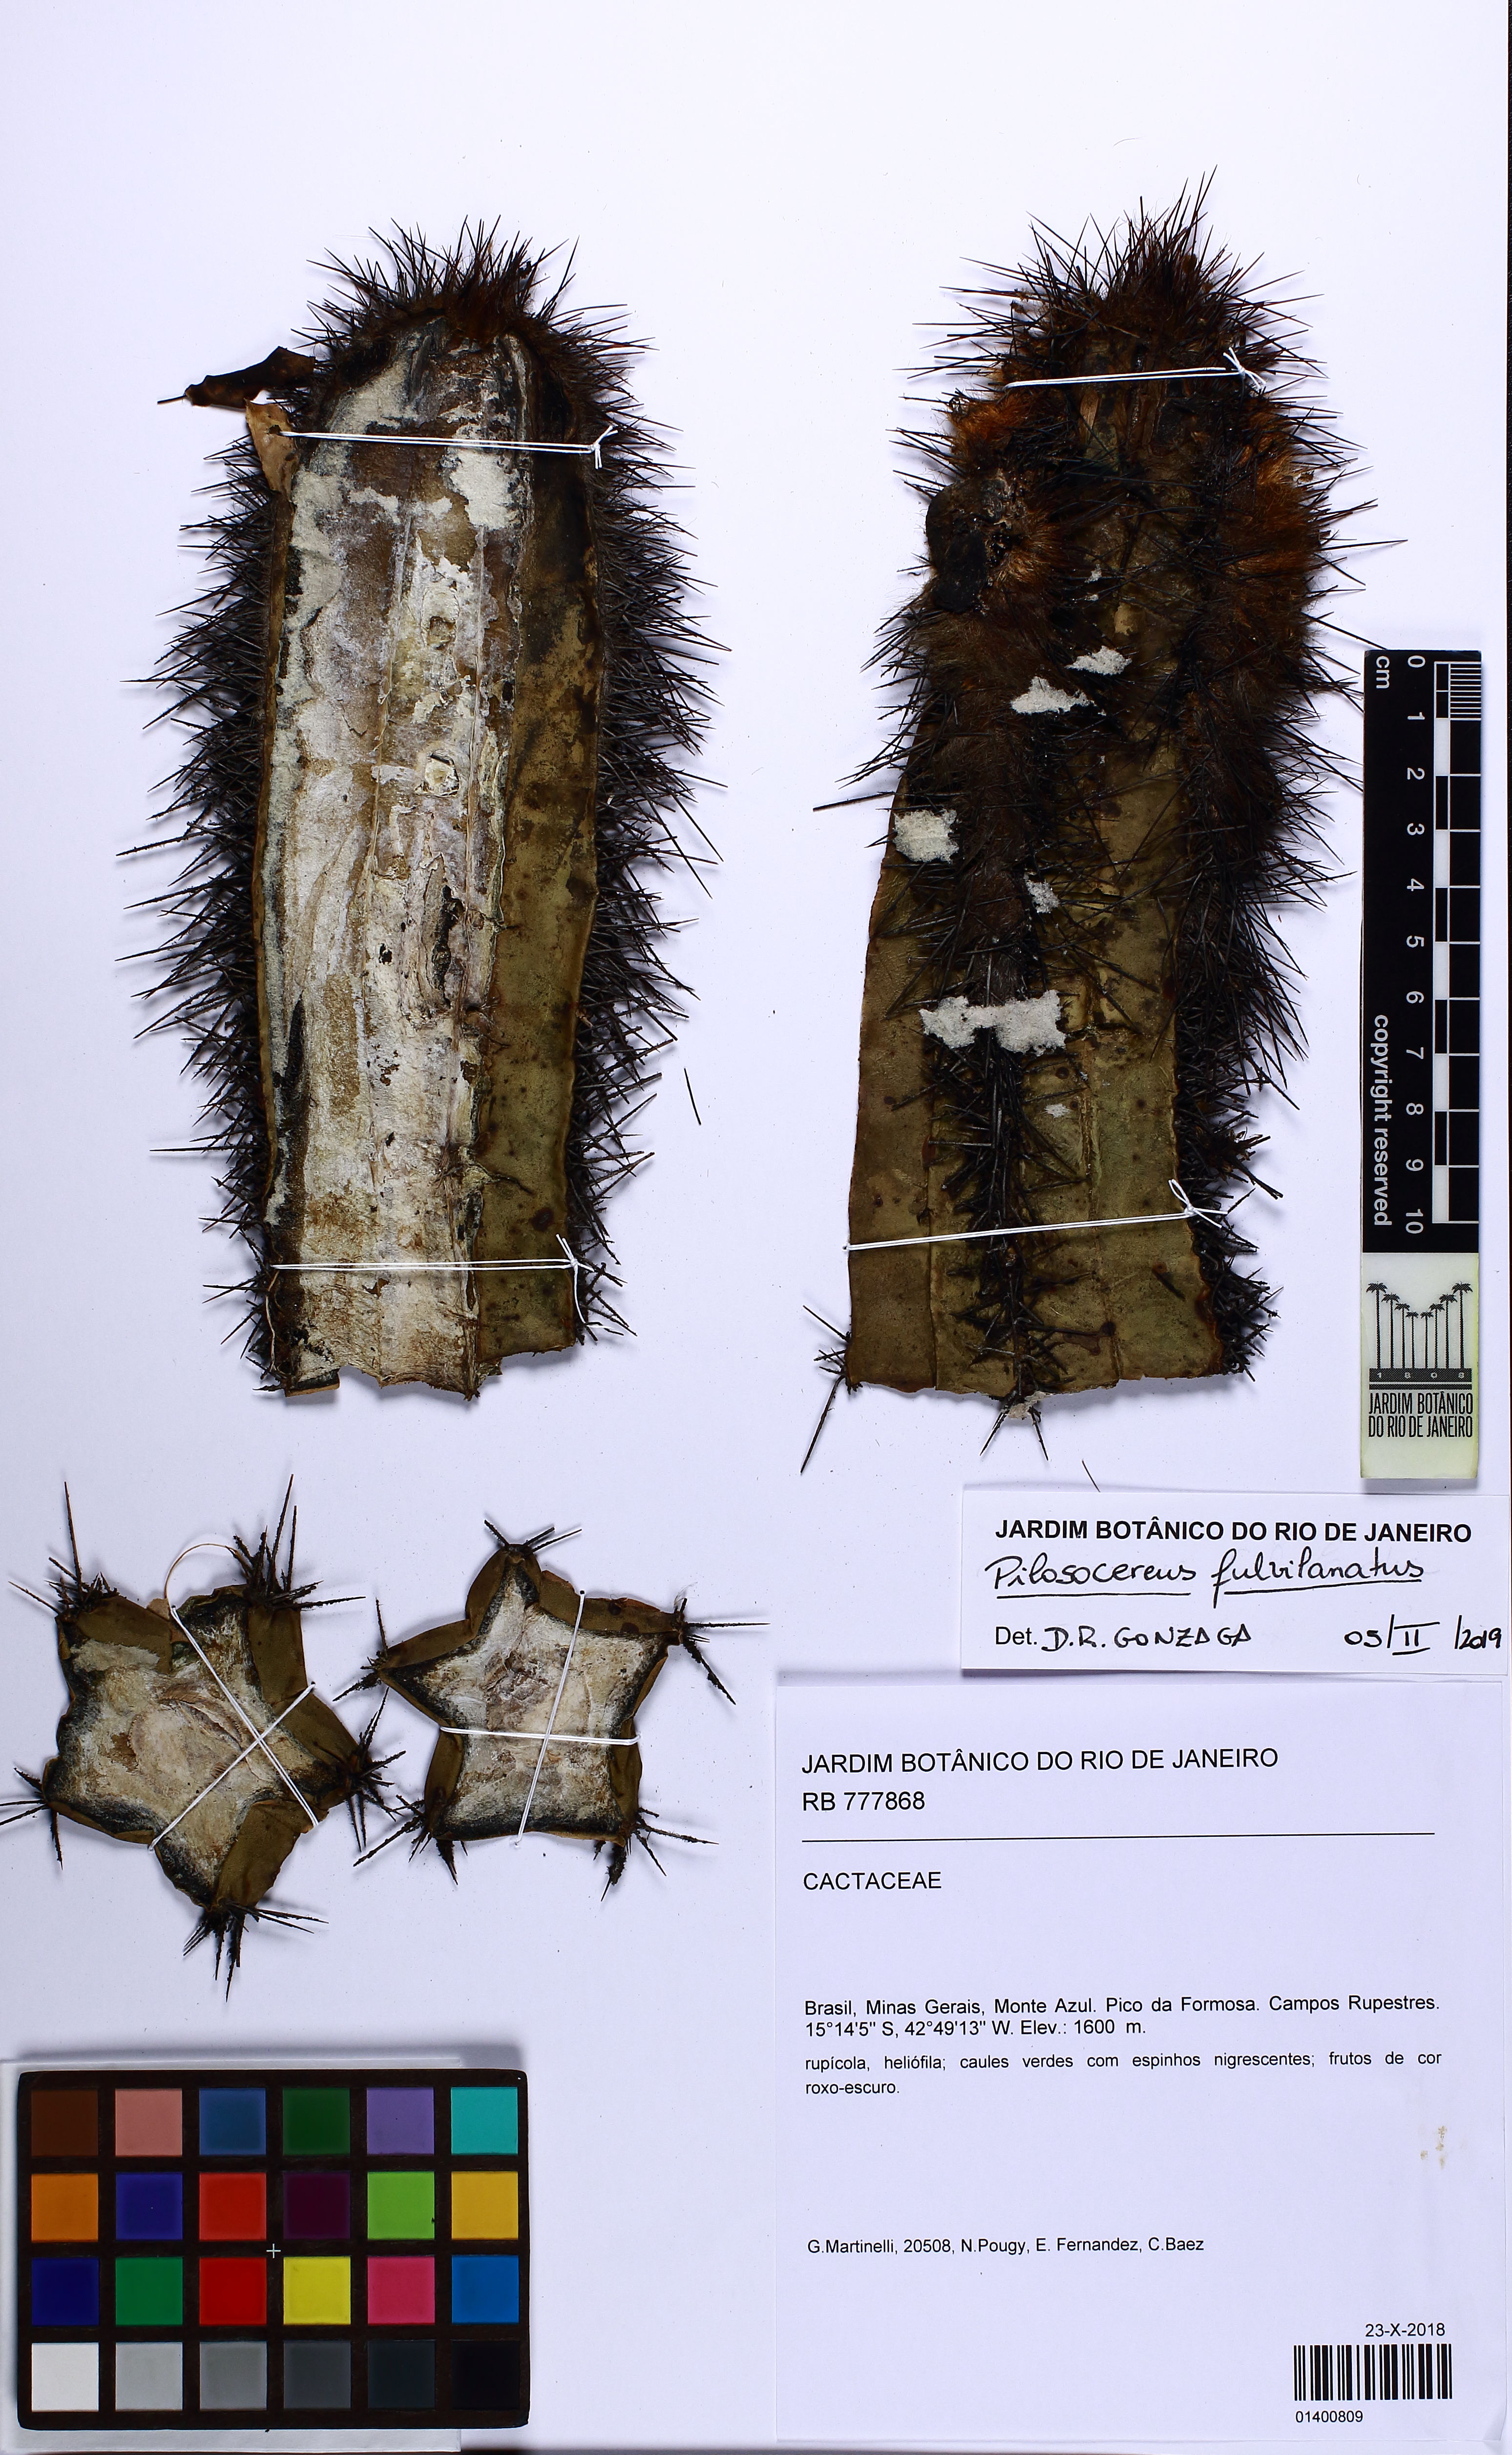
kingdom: Plantae
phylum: Tracheophyta
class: Magnoliopsida
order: Caryophyllales
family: Cactaceae
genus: Pilosocereus
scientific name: Pilosocereus fulvilanatus
